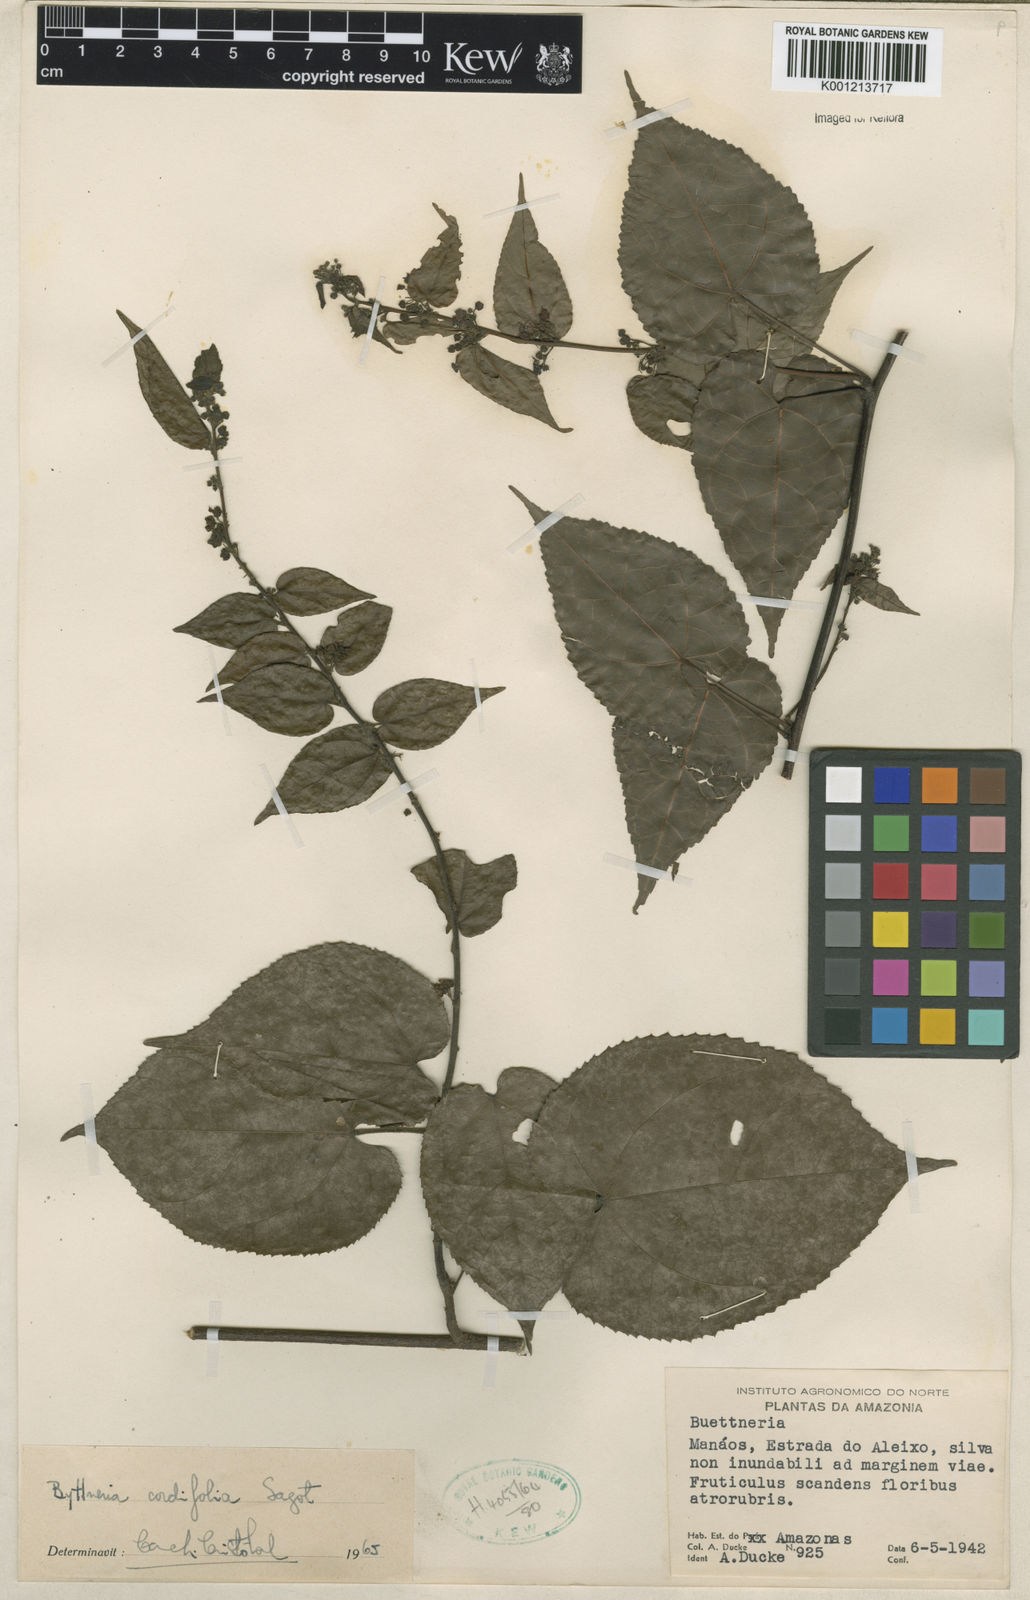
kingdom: Plantae
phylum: Tracheophyta
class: Magnoliopsida
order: Malvales
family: Malvaceae
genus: Byttneria
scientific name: Byttneria cordifolia
